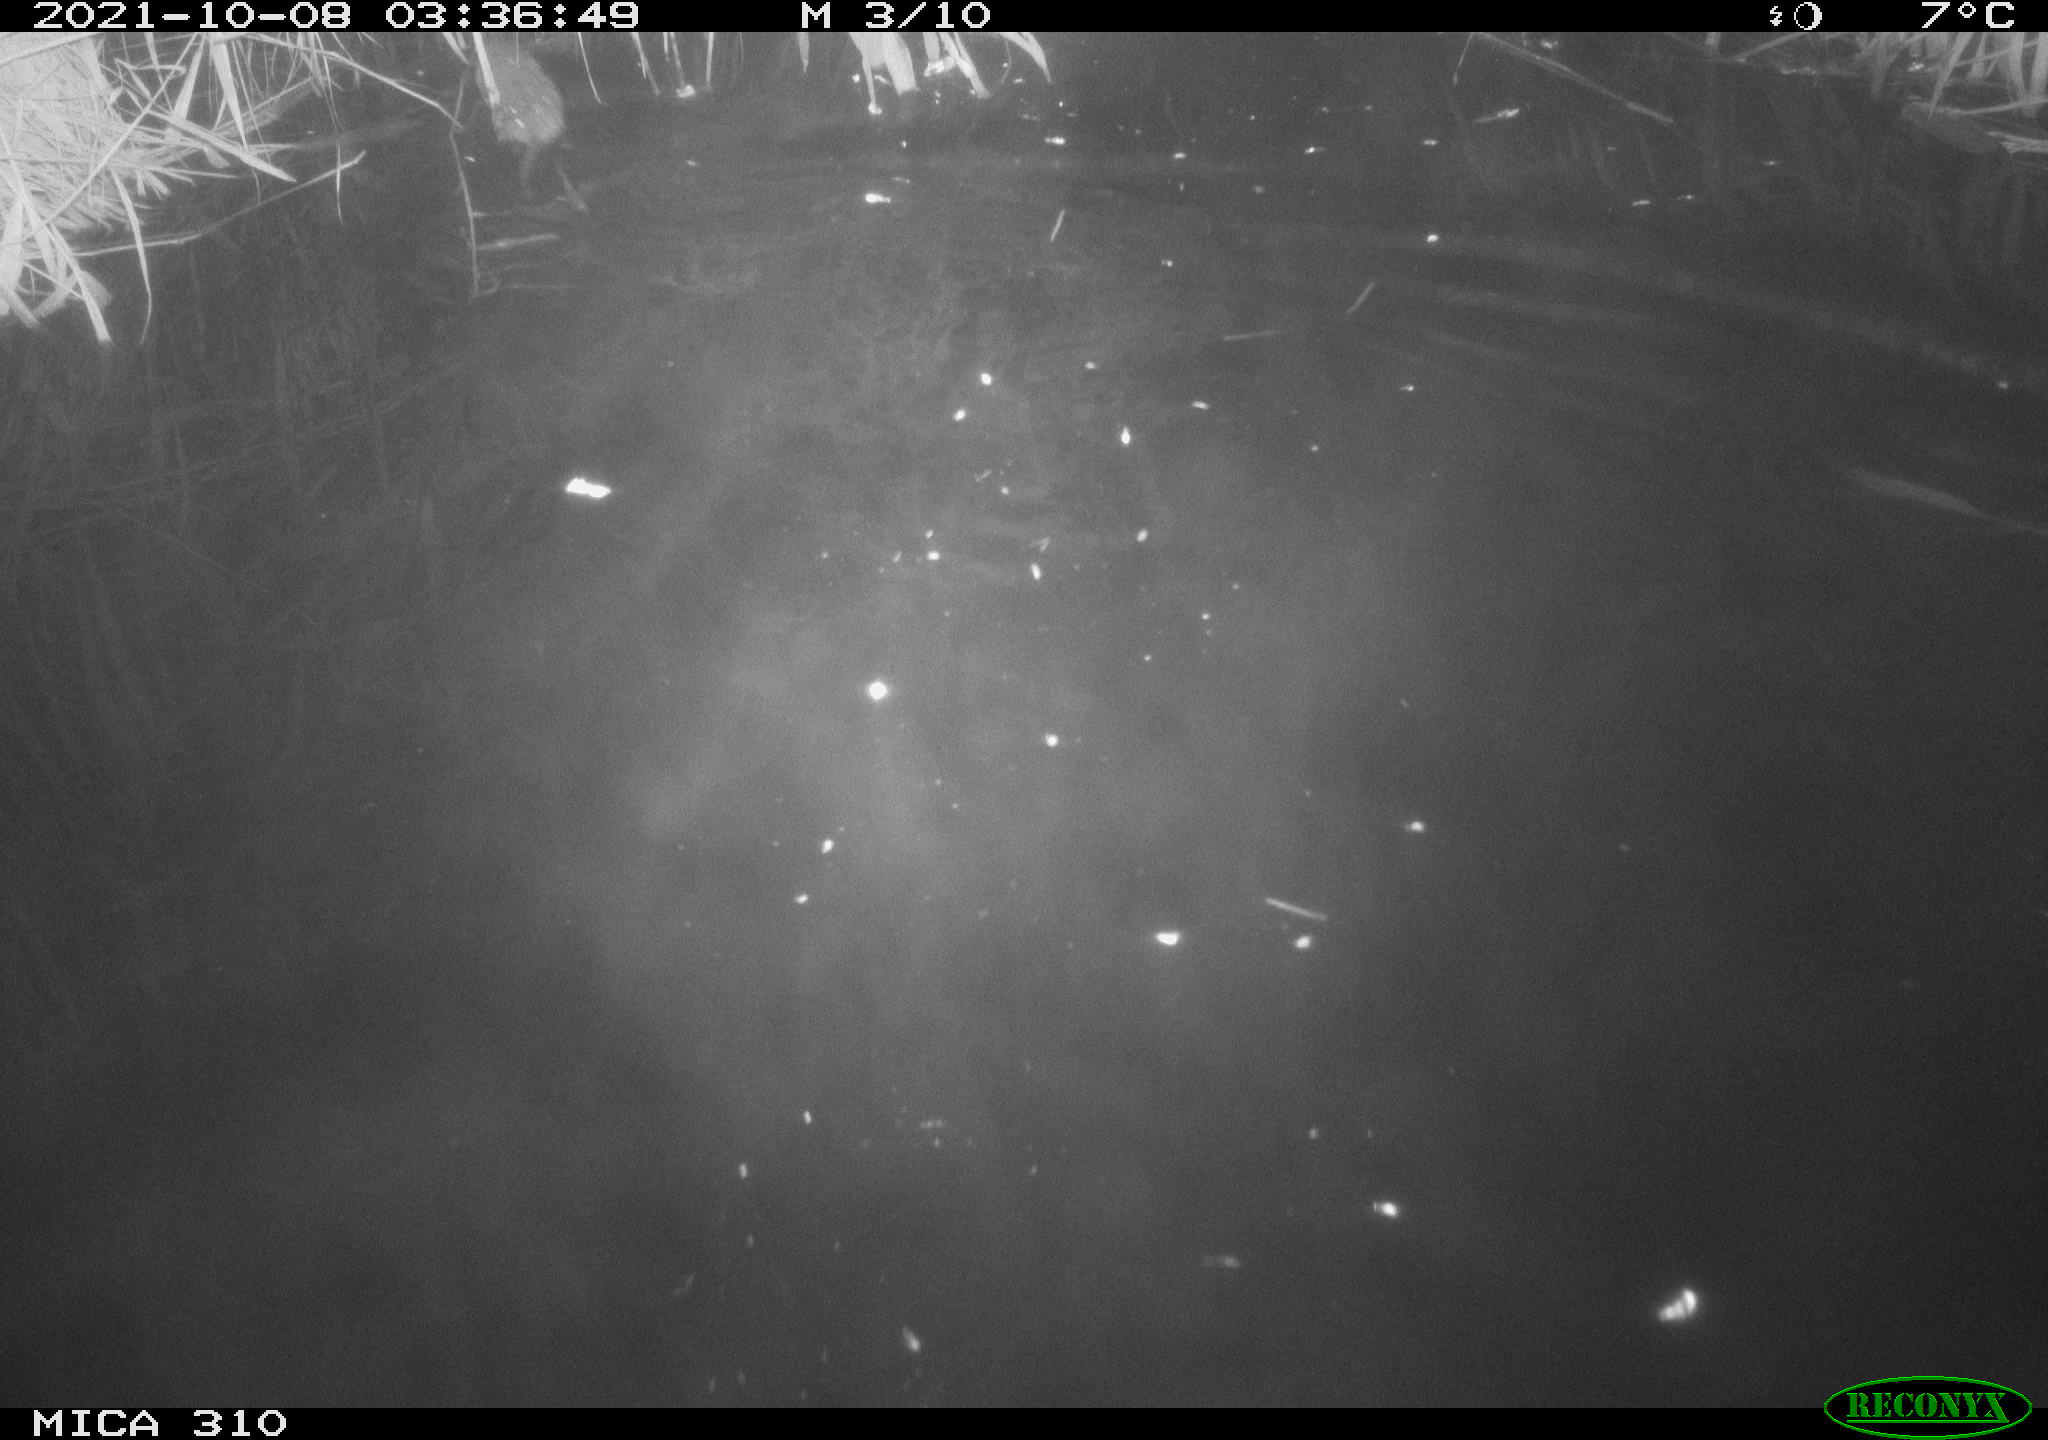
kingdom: Animalia
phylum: Chordata
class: Mammalia
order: Rodentia
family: Muridae
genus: Rattus
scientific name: Rattus norvegicus
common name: Brown rat
